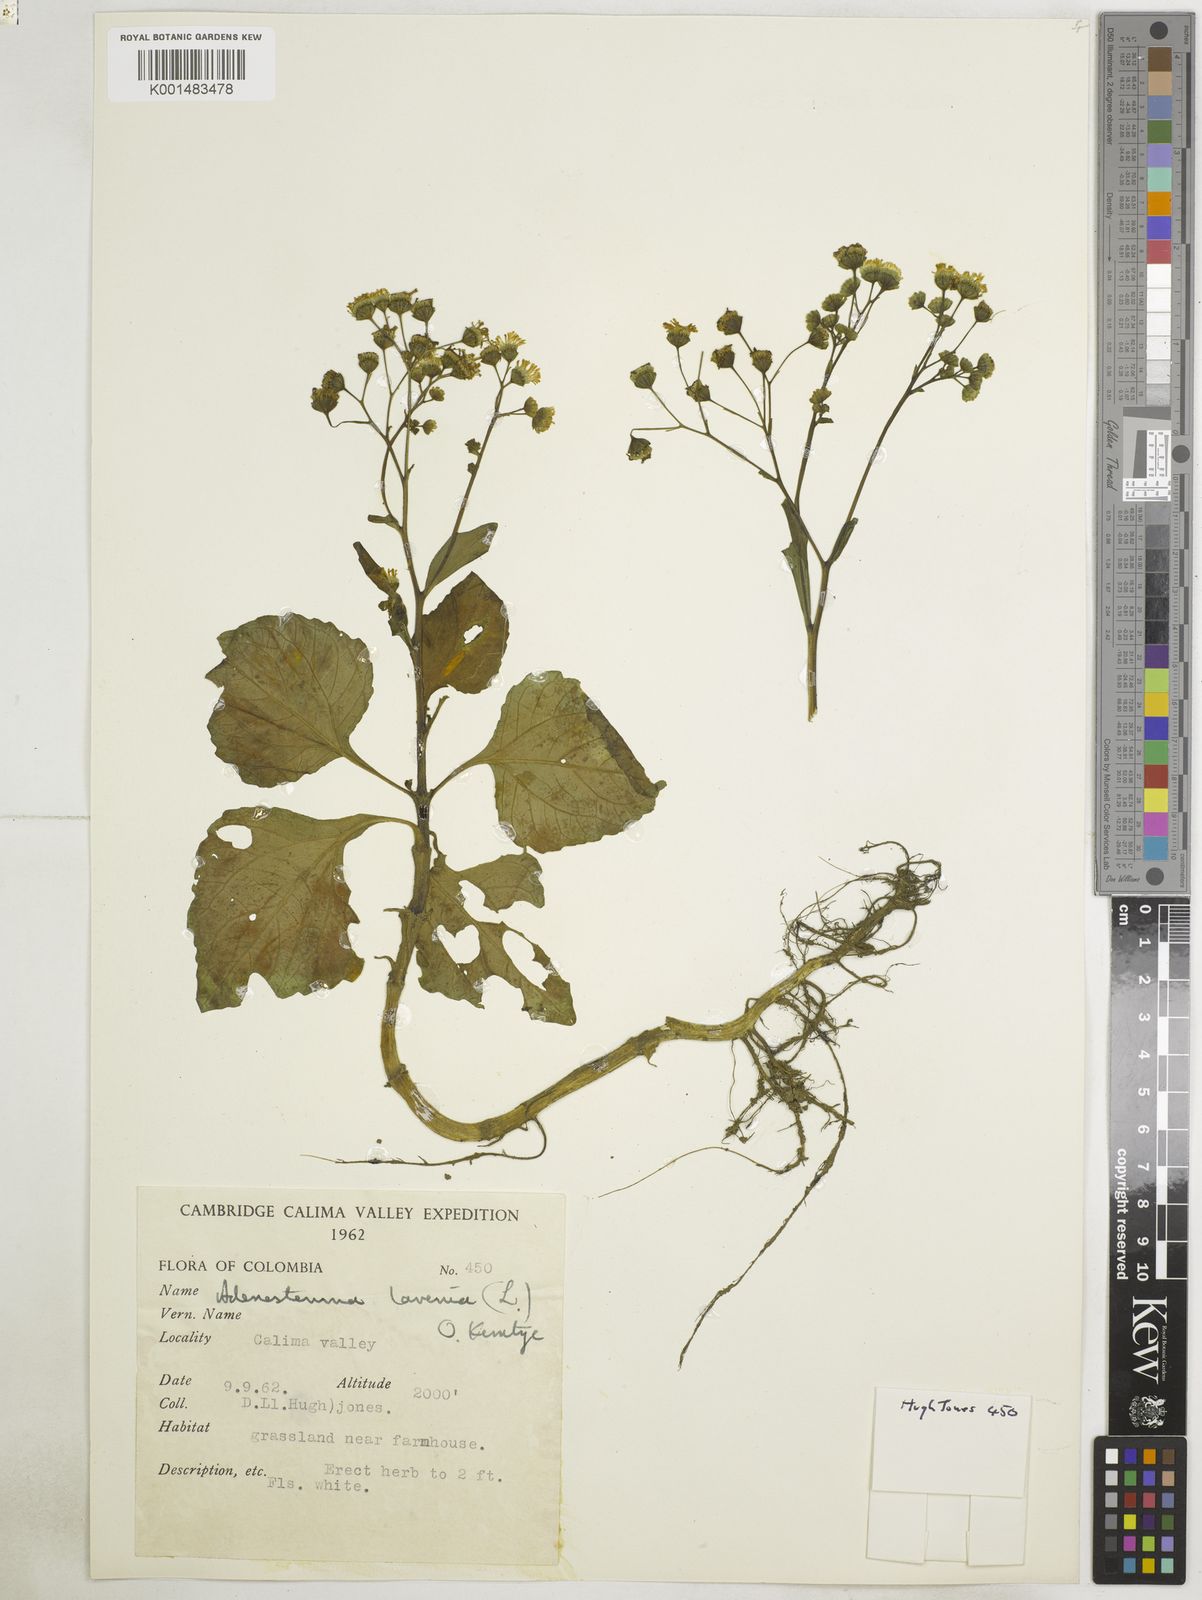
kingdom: Plantae
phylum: Tracheophyta
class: Magnoliopsida
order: Asterales
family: Asteraceae
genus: Adenostemma
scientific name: Adenostemma lavenia
